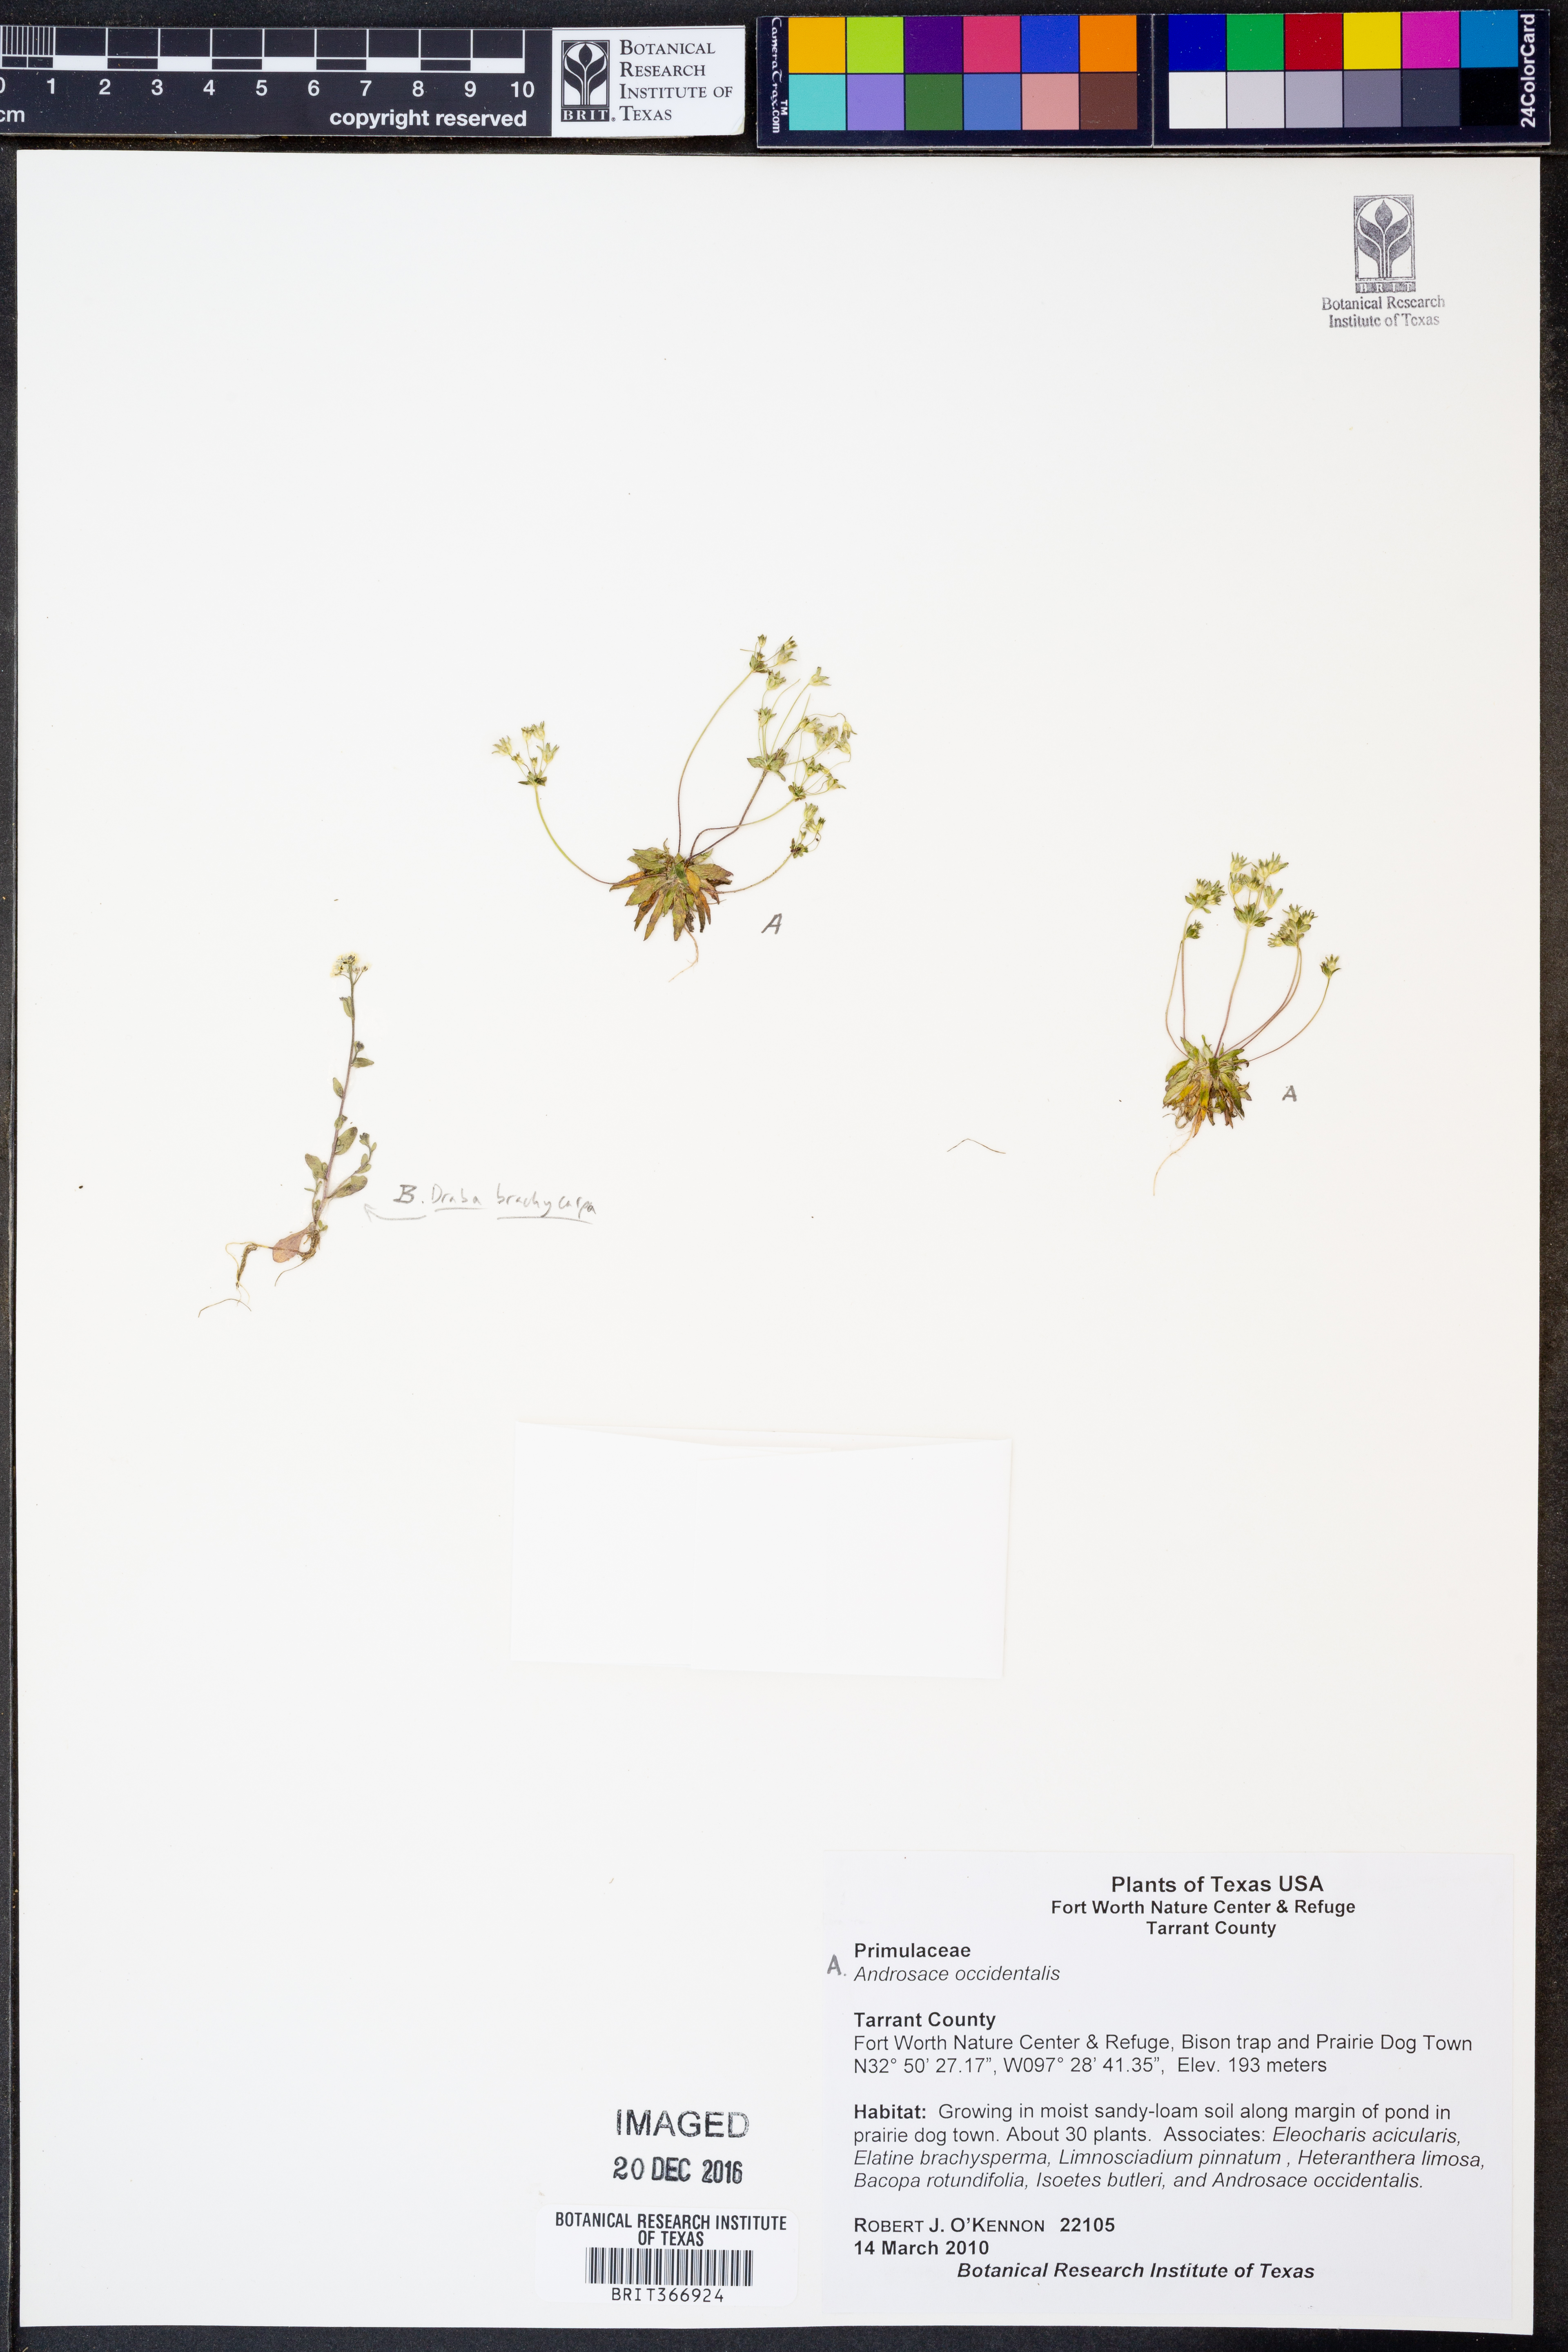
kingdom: Plantae
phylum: Tracheophyta
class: Magnoliopsida
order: Ericales
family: Primulaceae
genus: Androsace
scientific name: Androsace occidentalis
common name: West rock-jasmine
